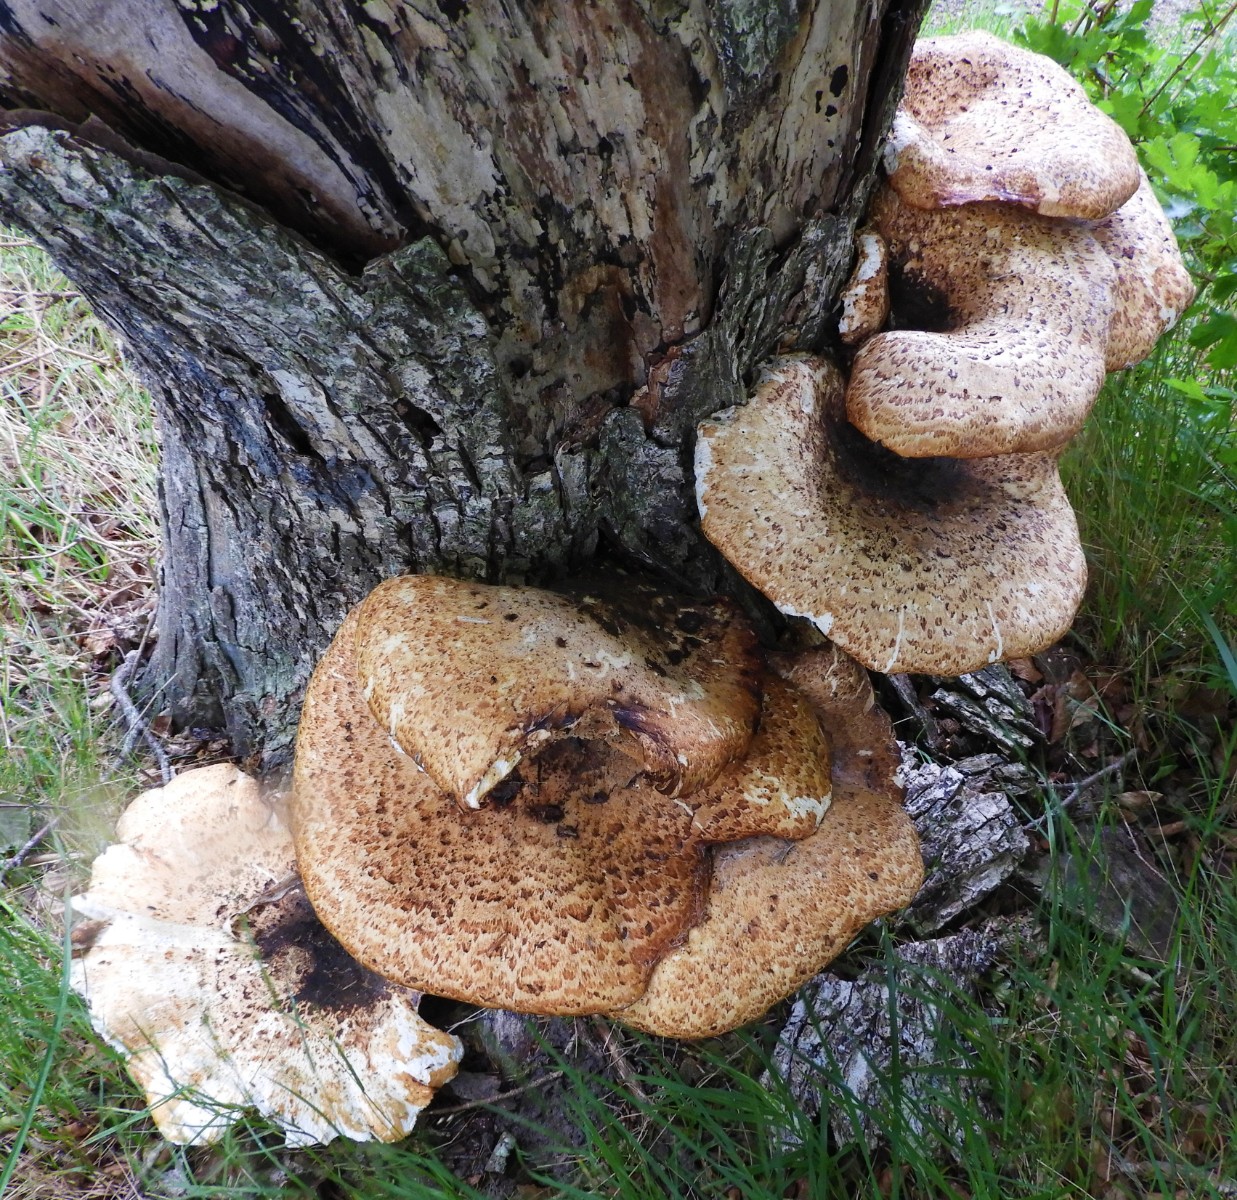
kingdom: Fungi
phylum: Basidiomycota
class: Agaricomycetes
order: Polyporales
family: Polyporaceae
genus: Cerioporus
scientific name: Cerioporus squamosus
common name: skællet stilkporesvamp
